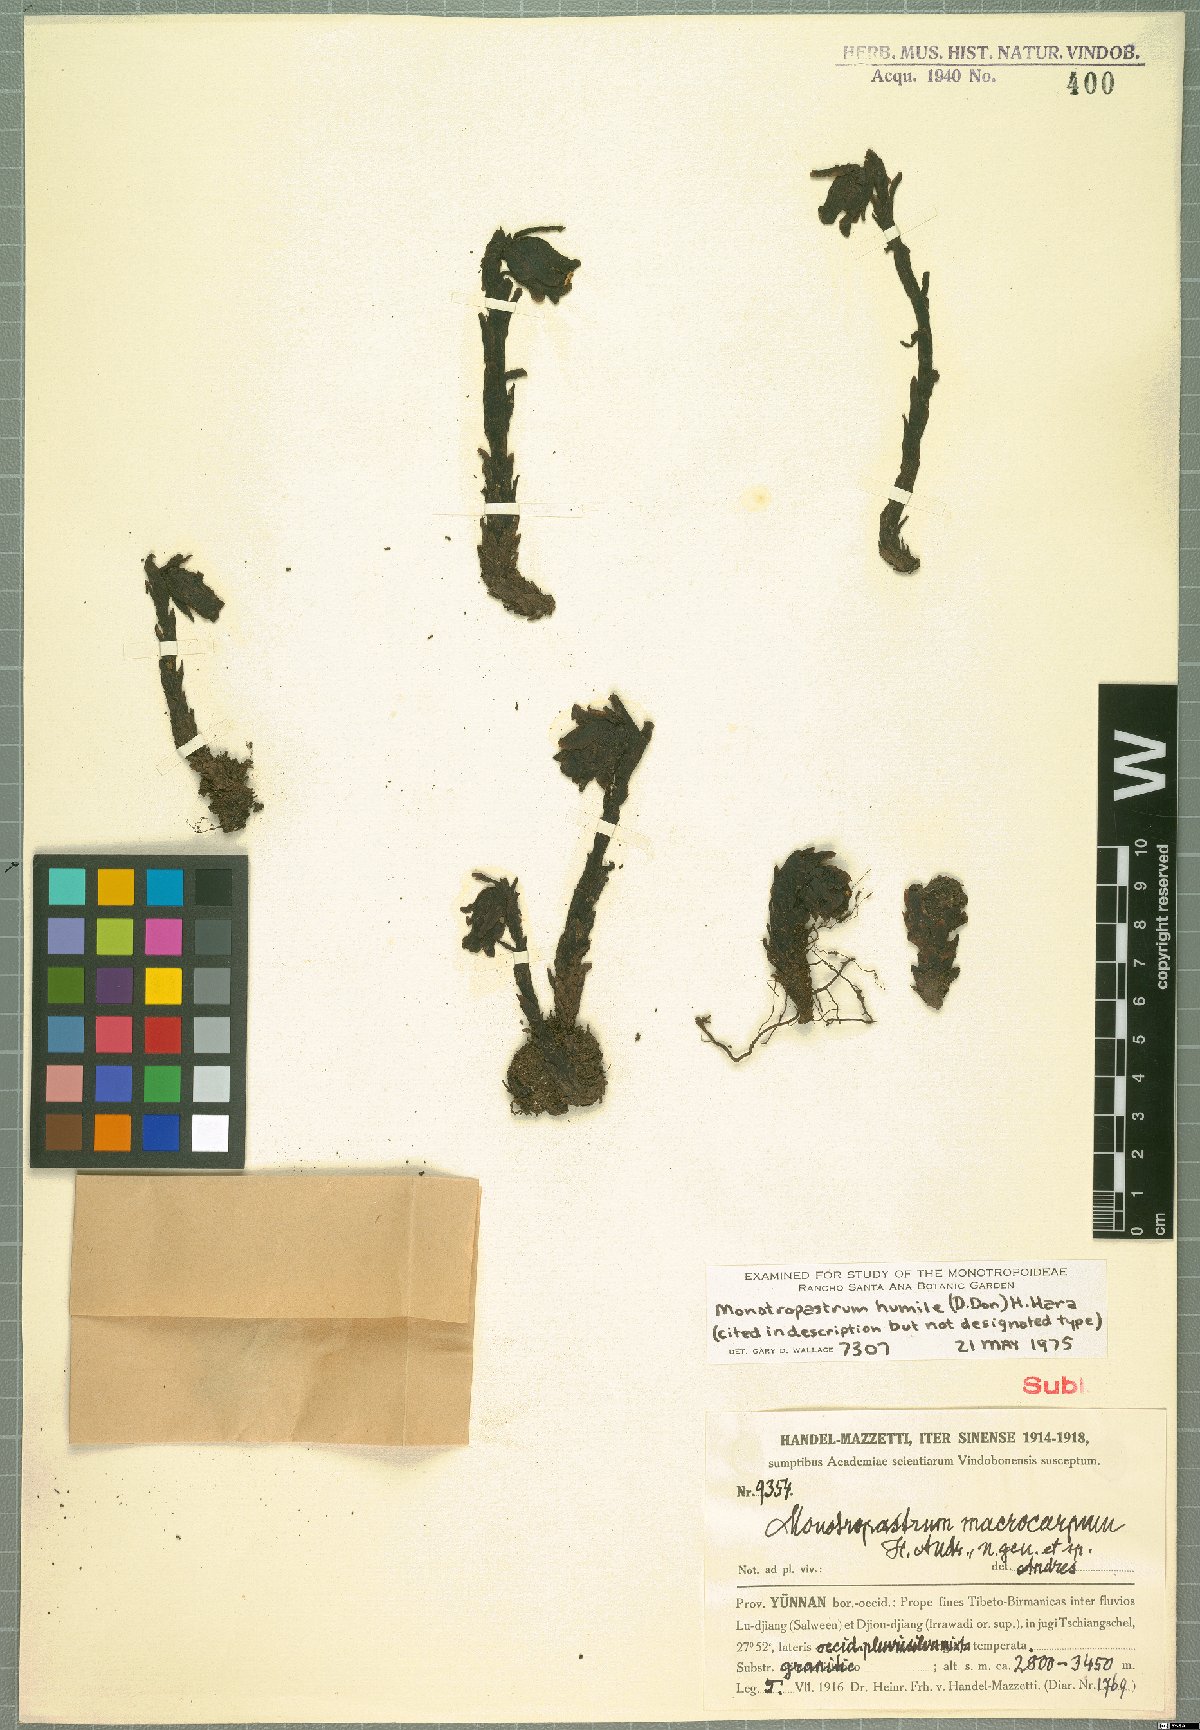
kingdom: Plantae
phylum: Tracheophyta
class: Magnoliopsida
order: Ericales
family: Ericaceae
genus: Monotropastrum
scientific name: Monotropastrum humile
